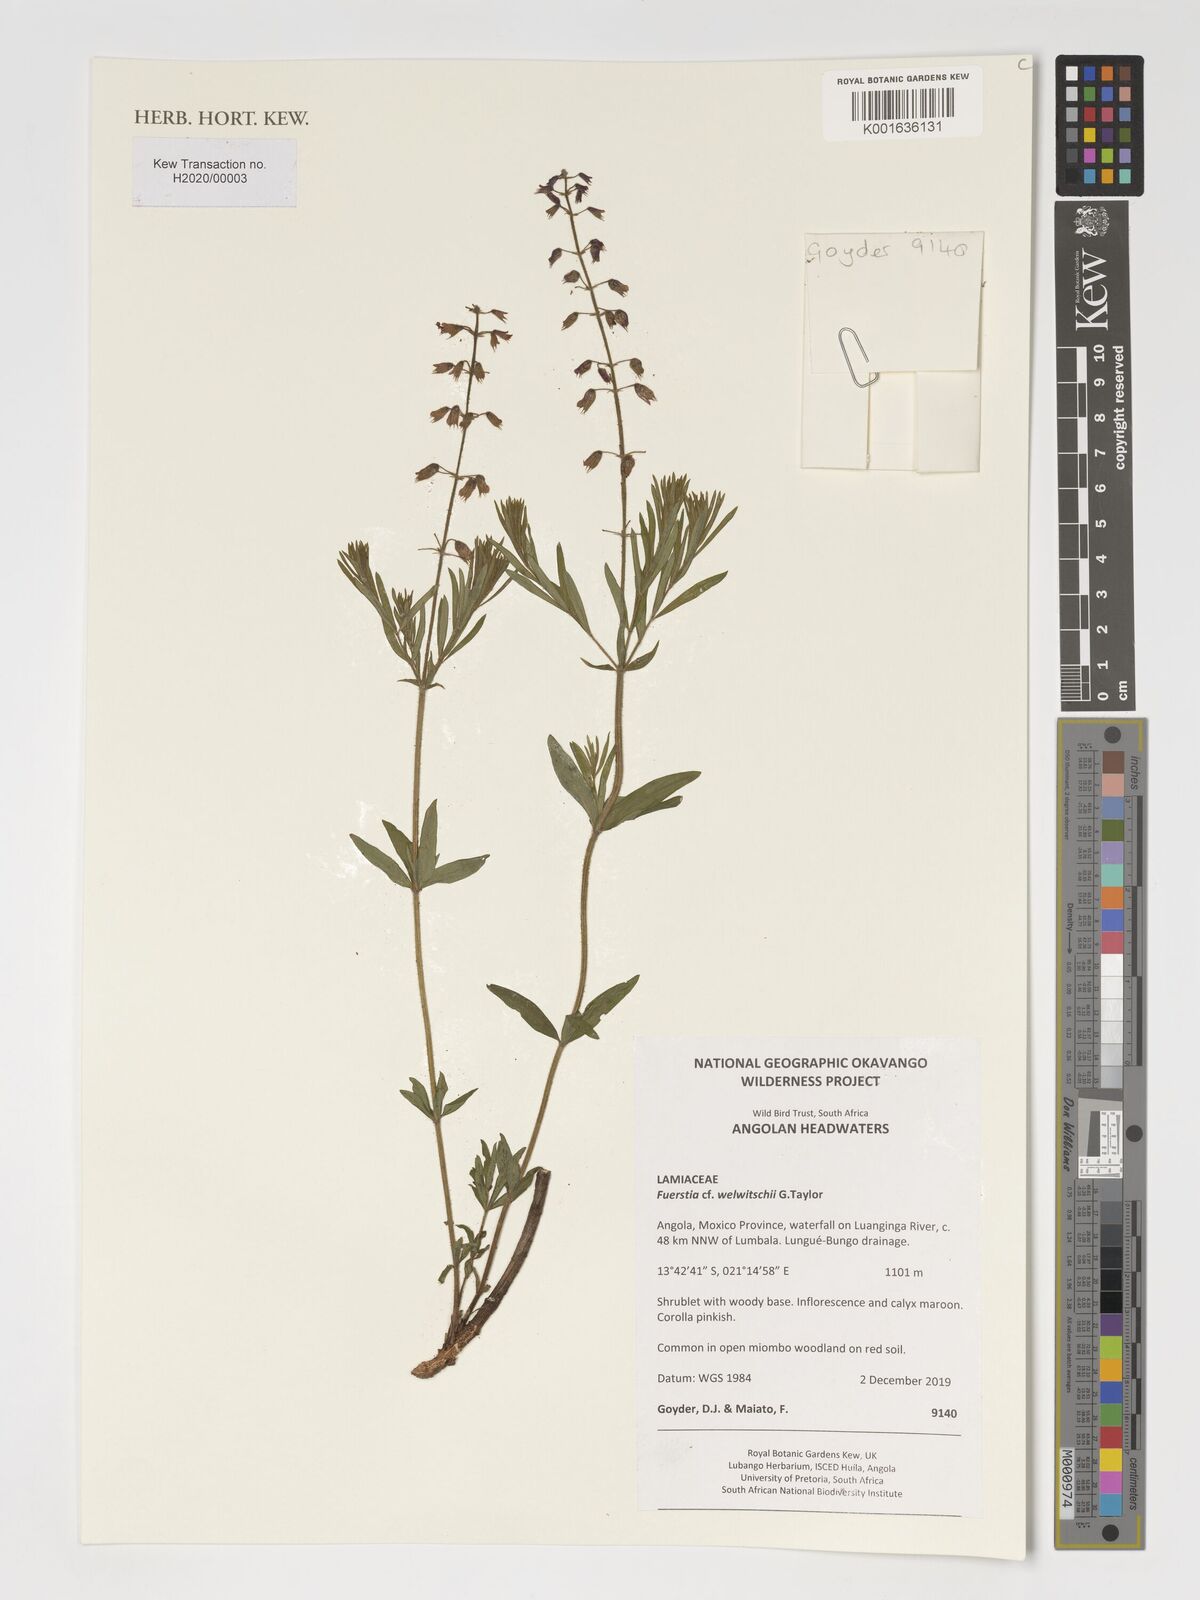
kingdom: Plantae
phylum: Tracheophyta
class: Magnoliopsida
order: Lamiales
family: Lamiaceae
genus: Fuerstia
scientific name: Fuerstia welwitschii
